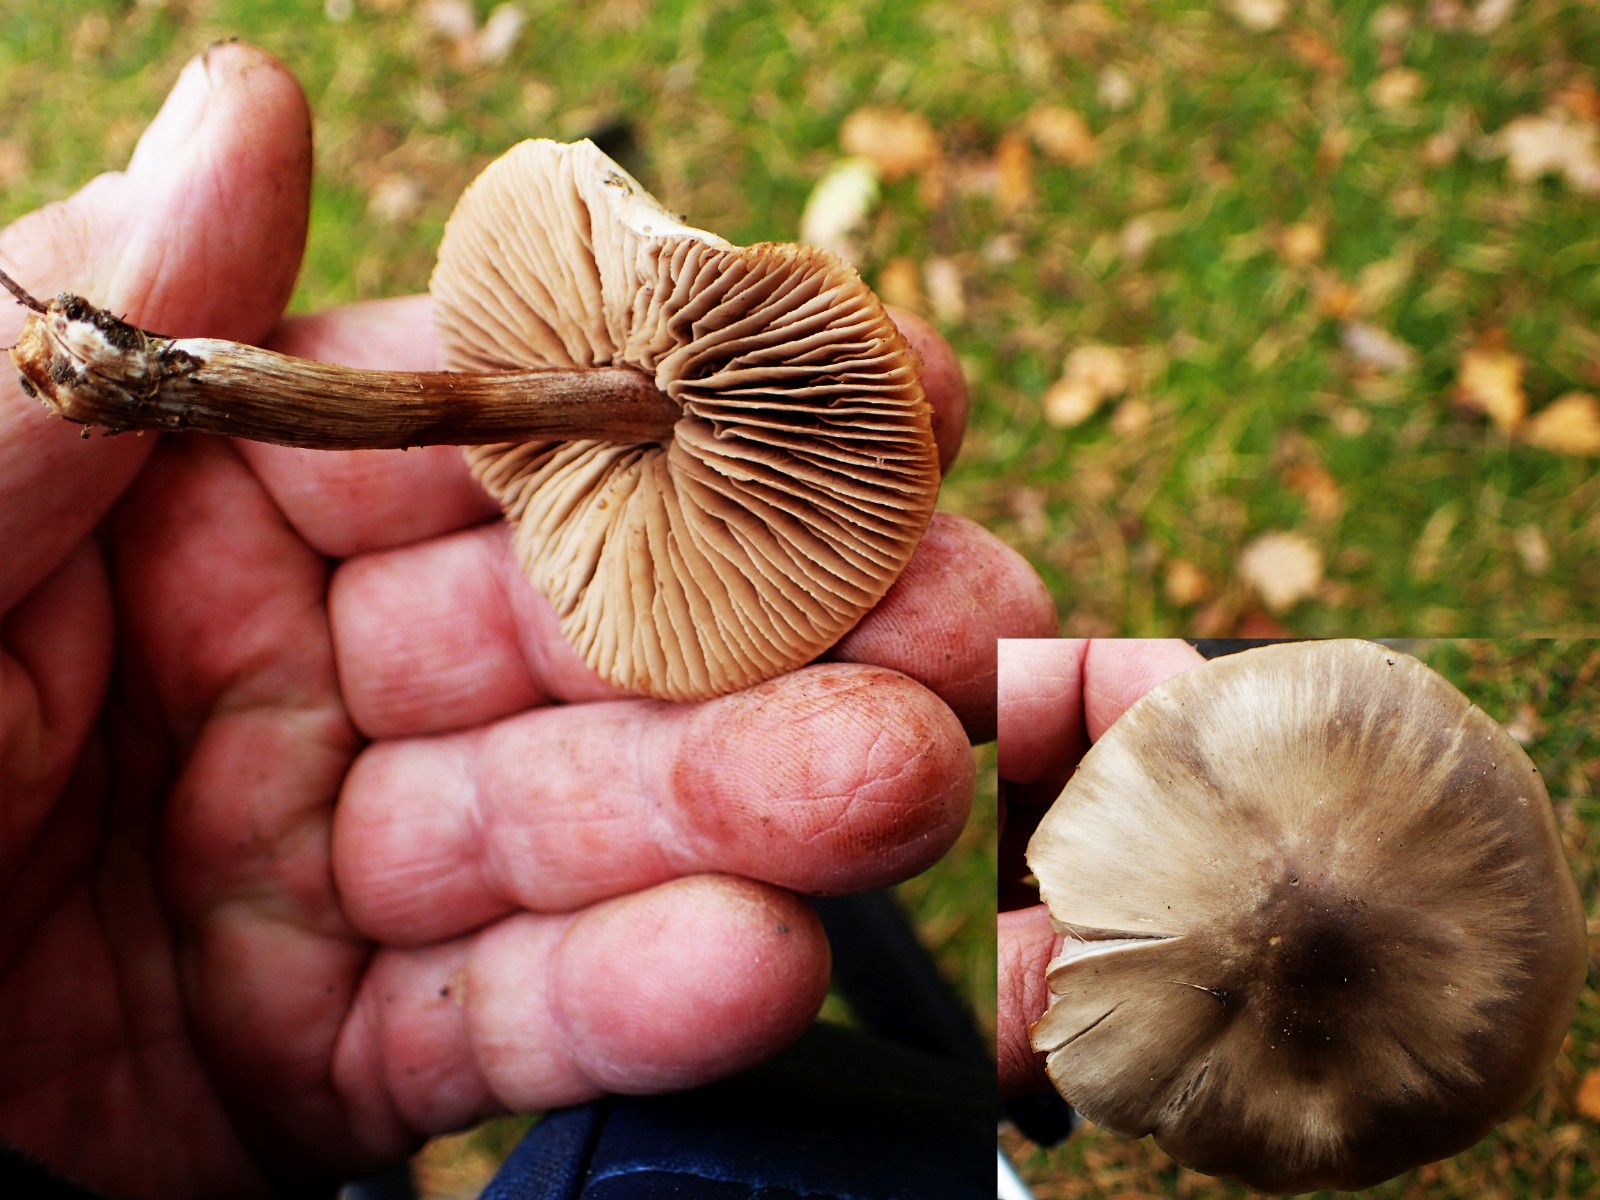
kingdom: Fungi
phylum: Basidiomycota
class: Agaricomycetes
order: Agaricales
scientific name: Agaricales
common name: champignonordenen
